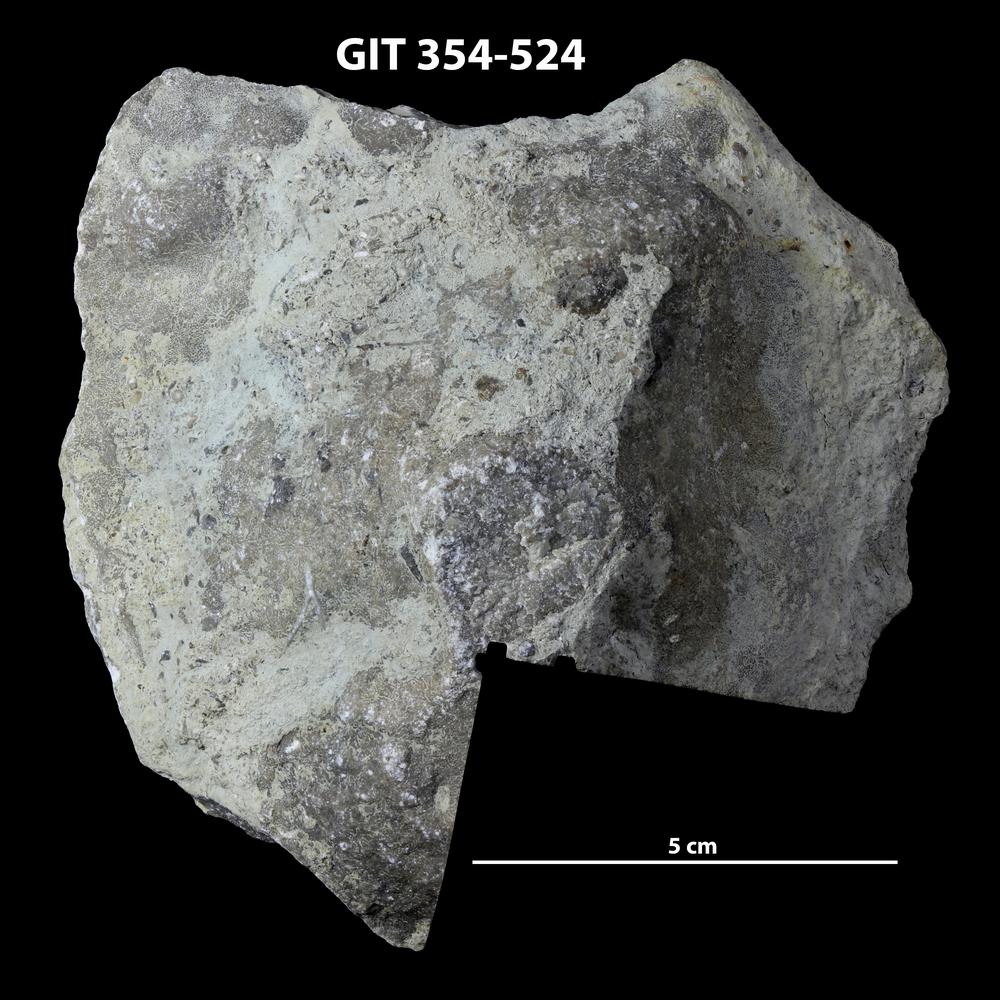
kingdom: Animalia
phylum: Porifera
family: Stromatoporidae
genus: Eostromatopora
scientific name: Eostromatopora
